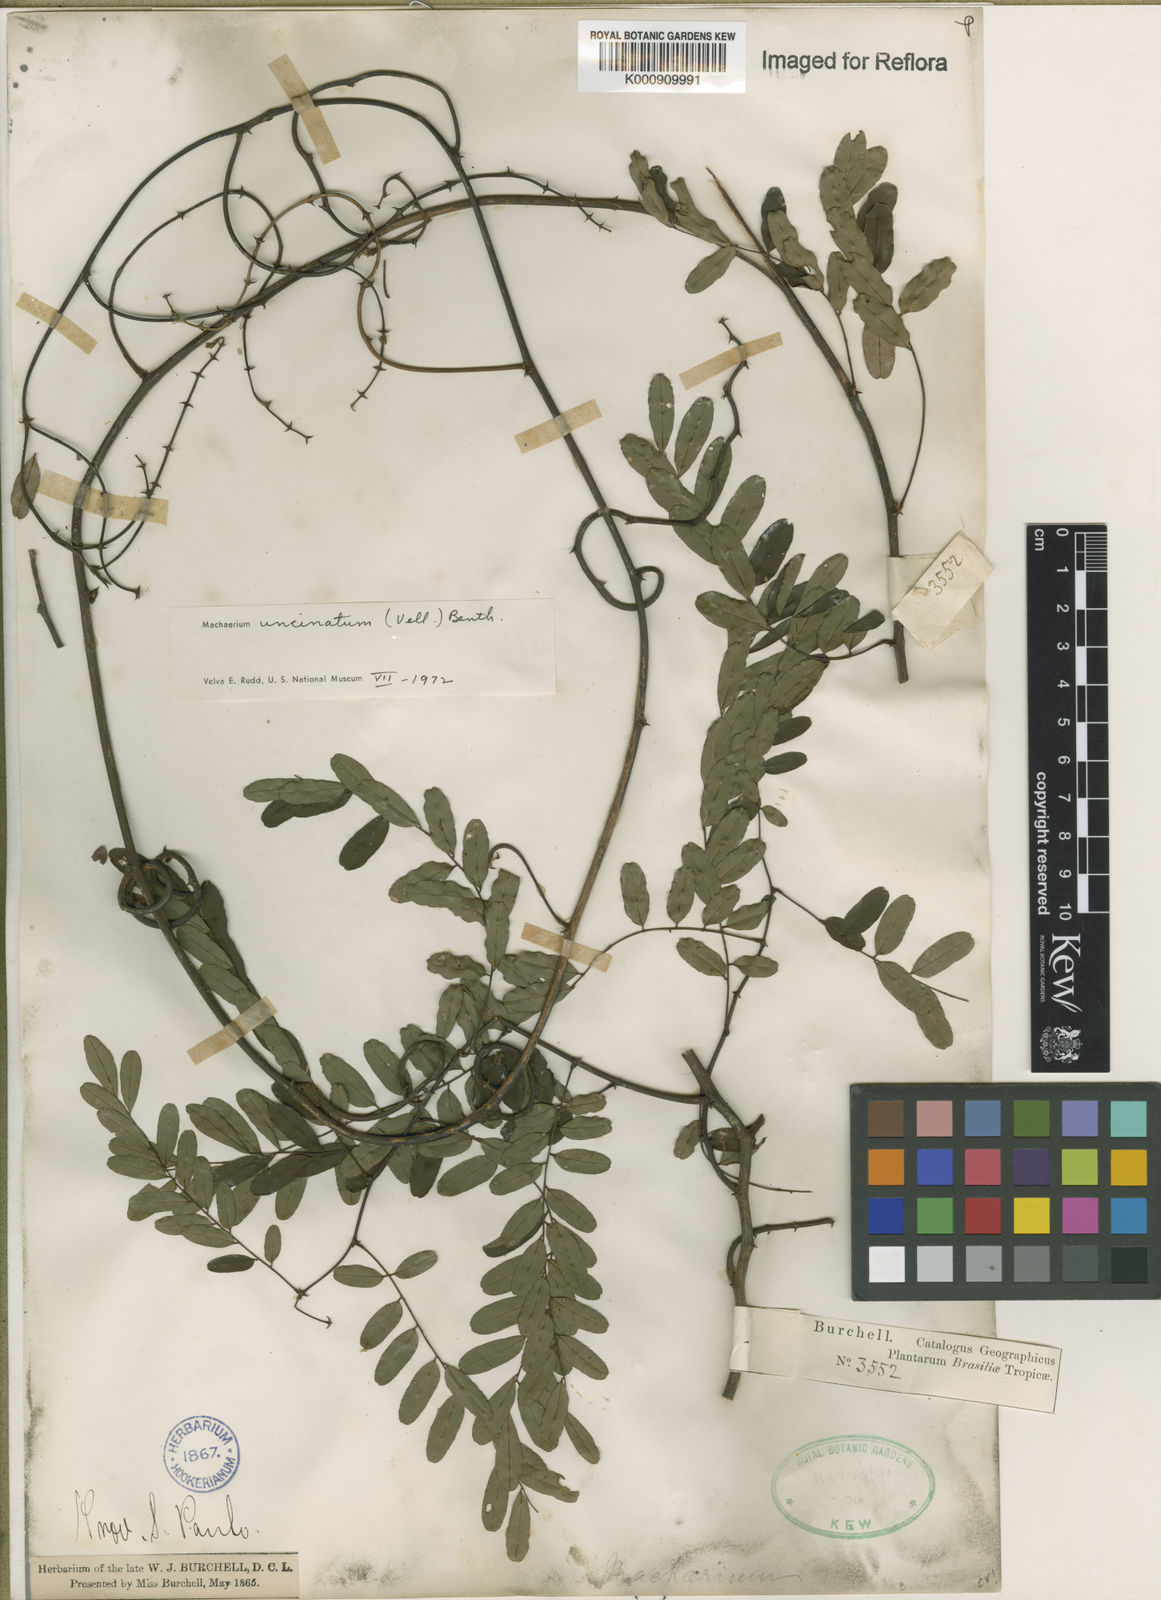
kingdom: Plantae
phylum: Tracheophyta
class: Magnoliopsida
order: Fabales
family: Fabaceae
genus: Machaerium
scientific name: Machaerium uncinatum
